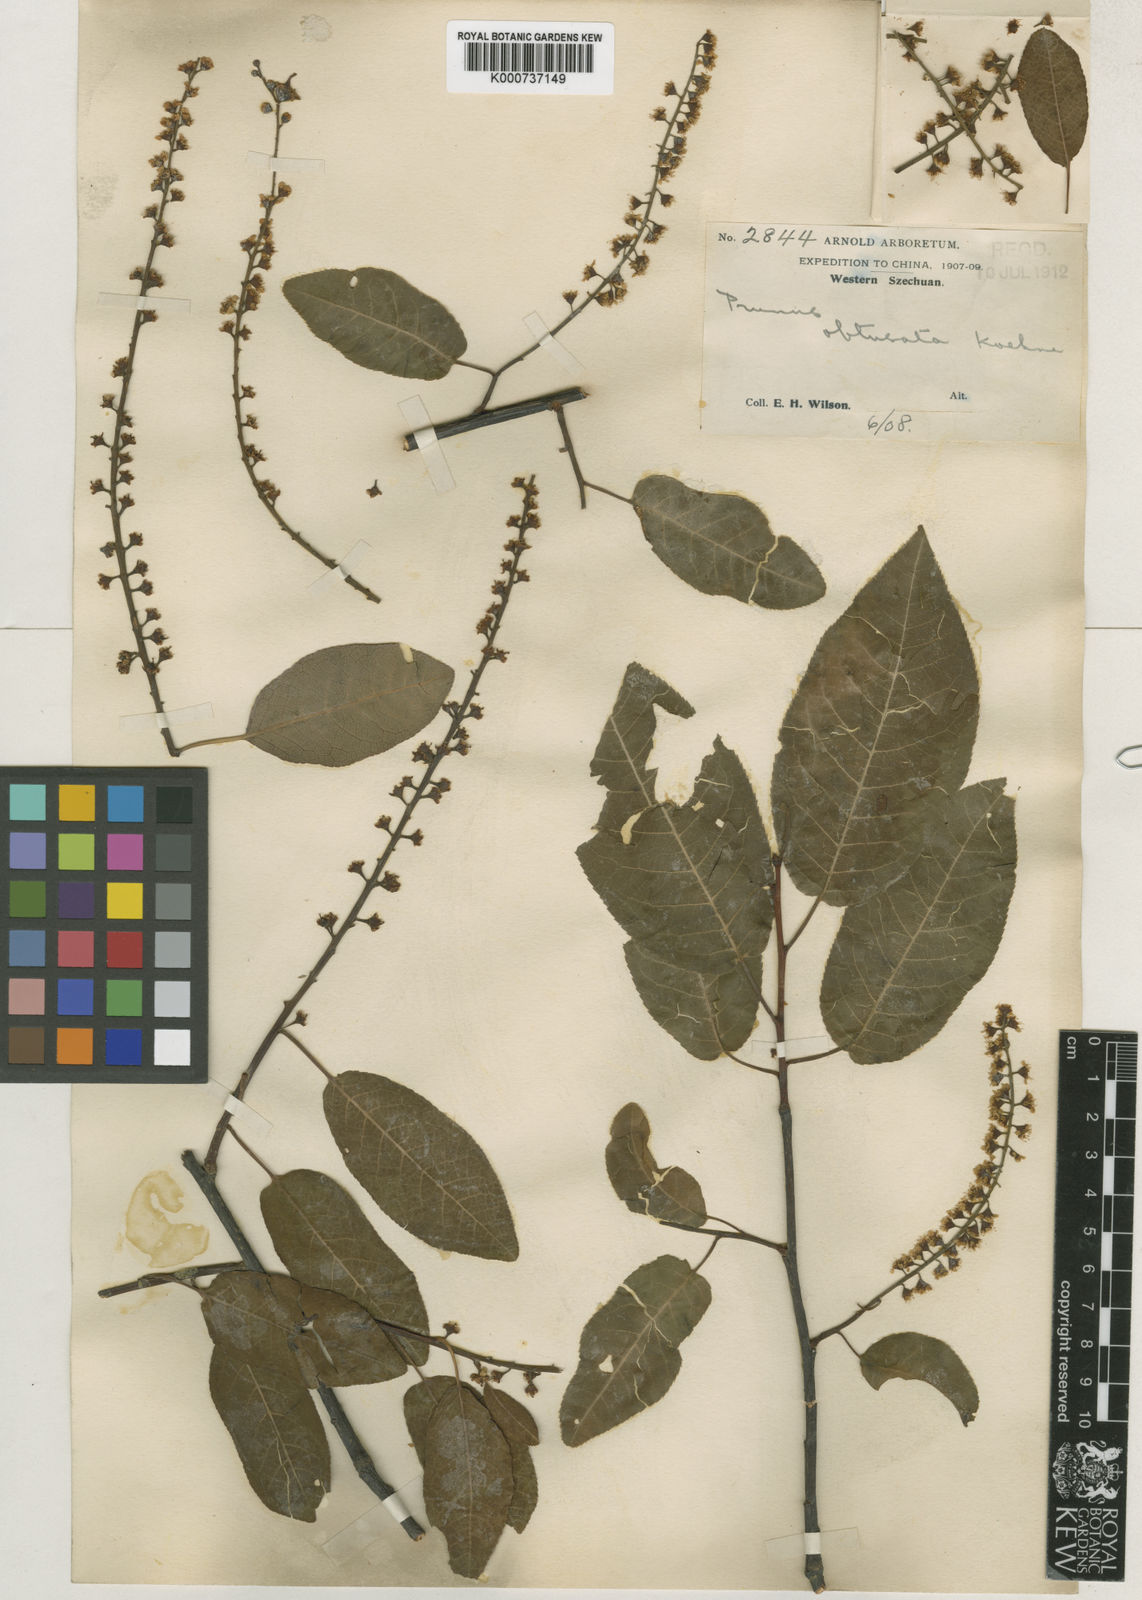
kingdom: Plantae
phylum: Tracheophyta
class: Magnoliopsida
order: Rosales
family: Rosaceae
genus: Prunus
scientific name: Prunus obtusata
